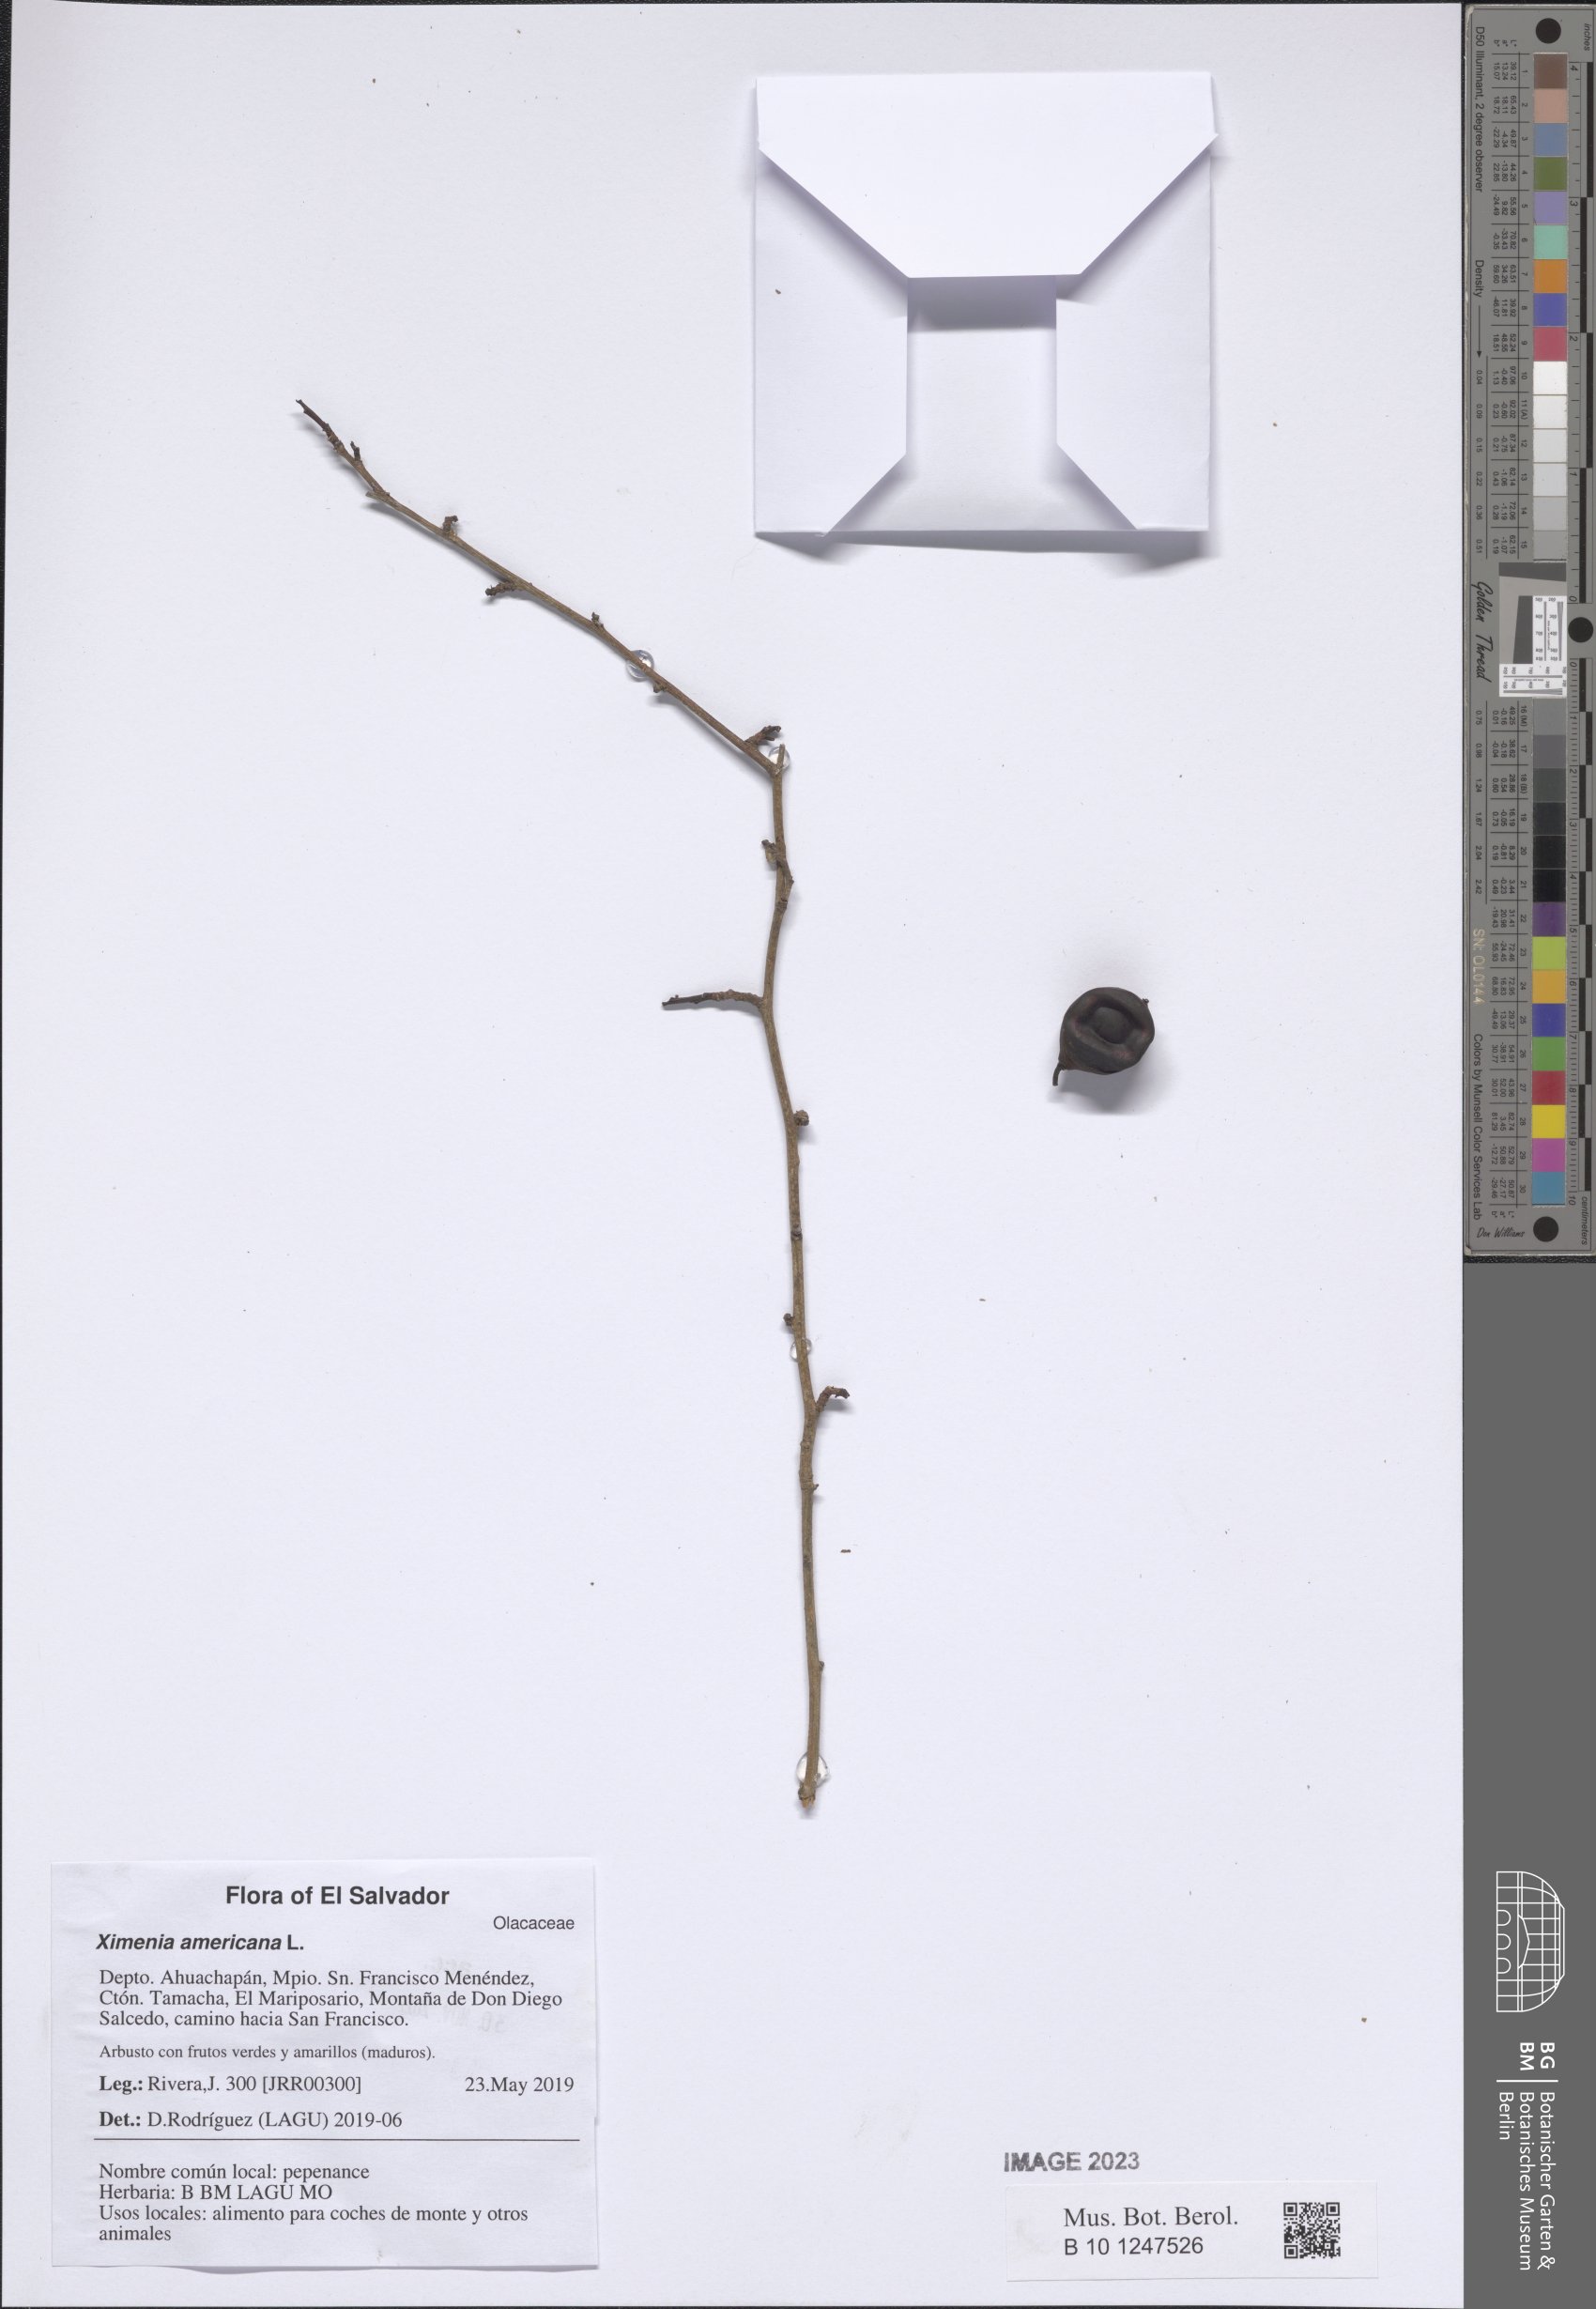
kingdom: Plantae
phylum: Tracheophyta
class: Magnoliopsida
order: Santalales
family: Ximeniaceae
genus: Ximenia
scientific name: Ximenia americana
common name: Tallowwood
